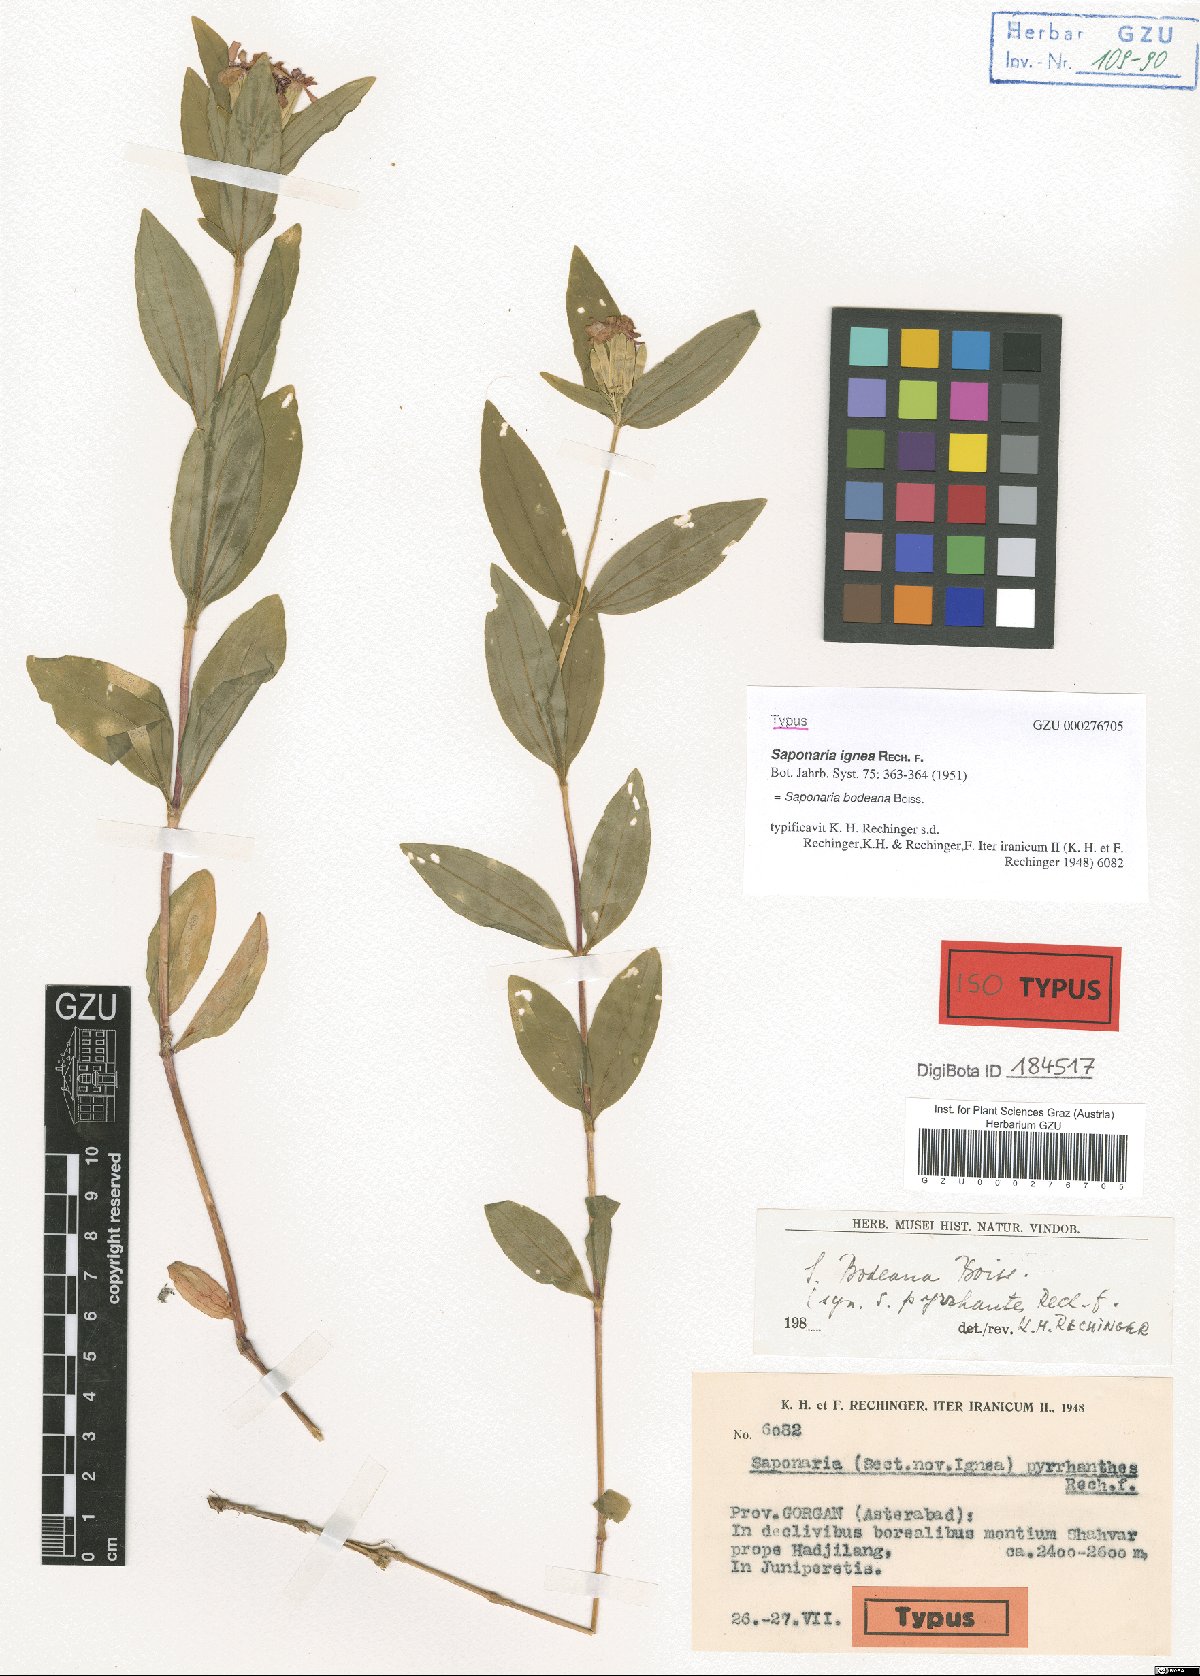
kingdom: Plantae
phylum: Tracheophyta
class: Magnoliopsida
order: Caryophyllales
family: Caryophyllaceae
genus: Saponaria
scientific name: Saponaria bodeana
